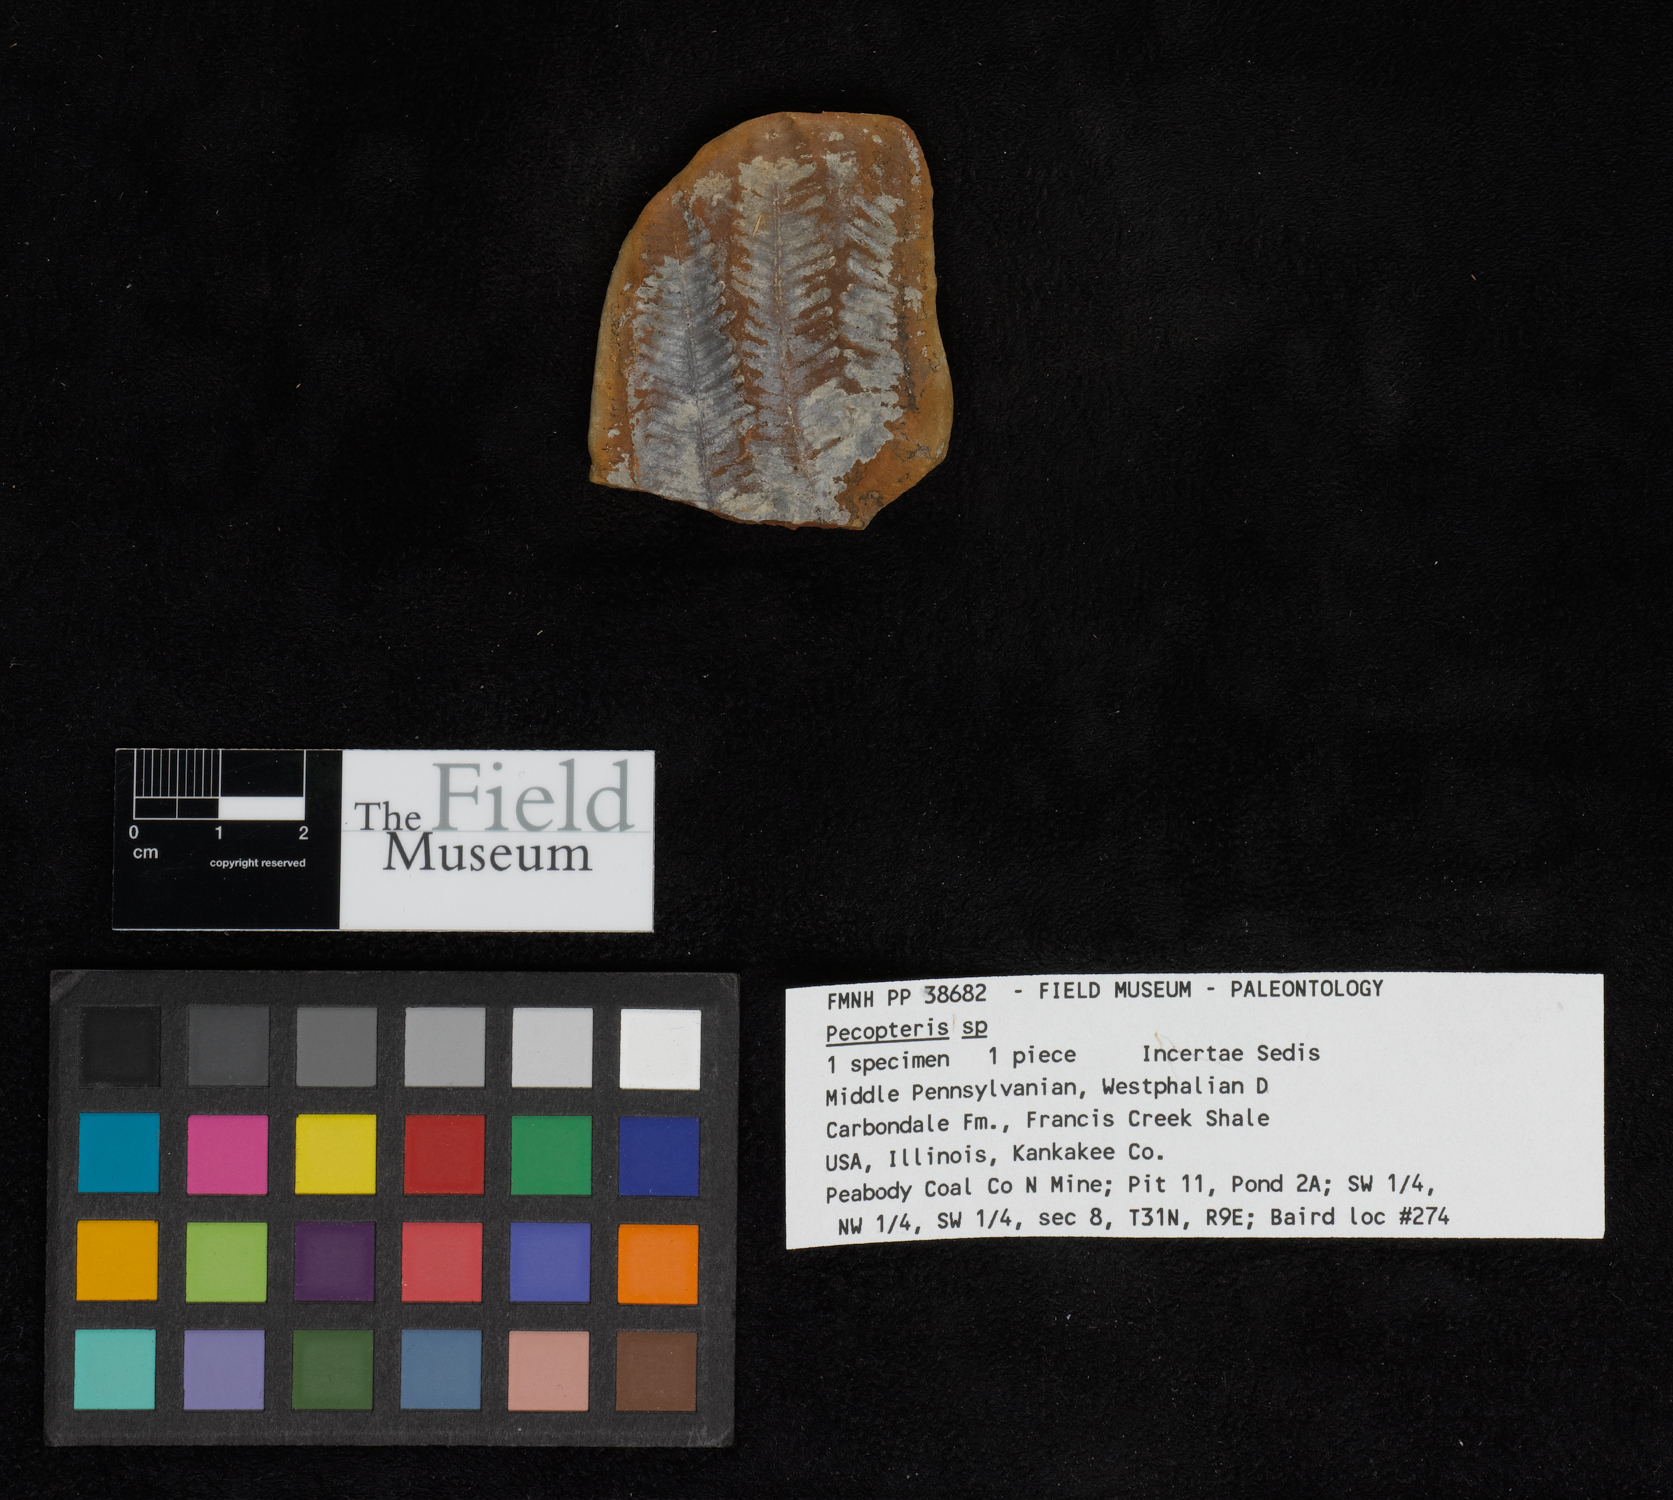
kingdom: Plantae
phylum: Tracheophyta
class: Polypodiopsida
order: Marattiales
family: Asterothecaceae
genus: Pecopteris
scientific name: Pecopteris
